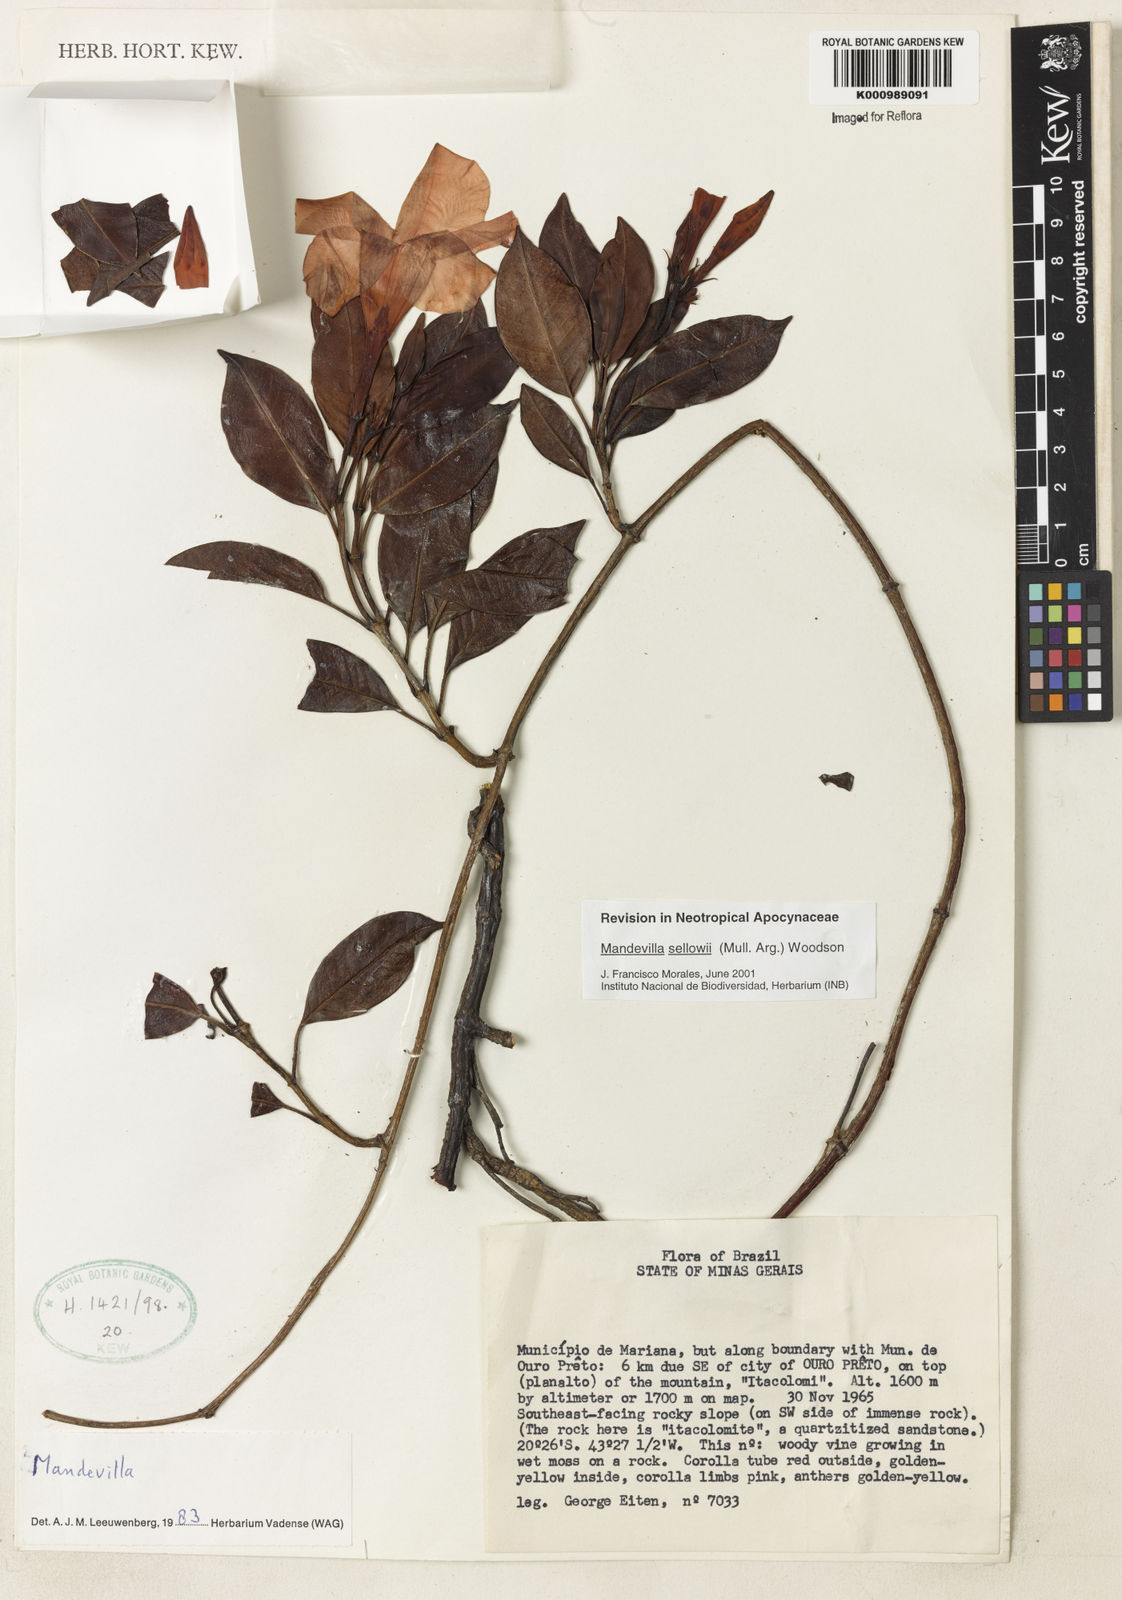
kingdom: Plantae
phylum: Tracheophyta
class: Magnoliopsida
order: Gentianales
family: Apocynaceae
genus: Mandevilla
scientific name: Mandevilla
